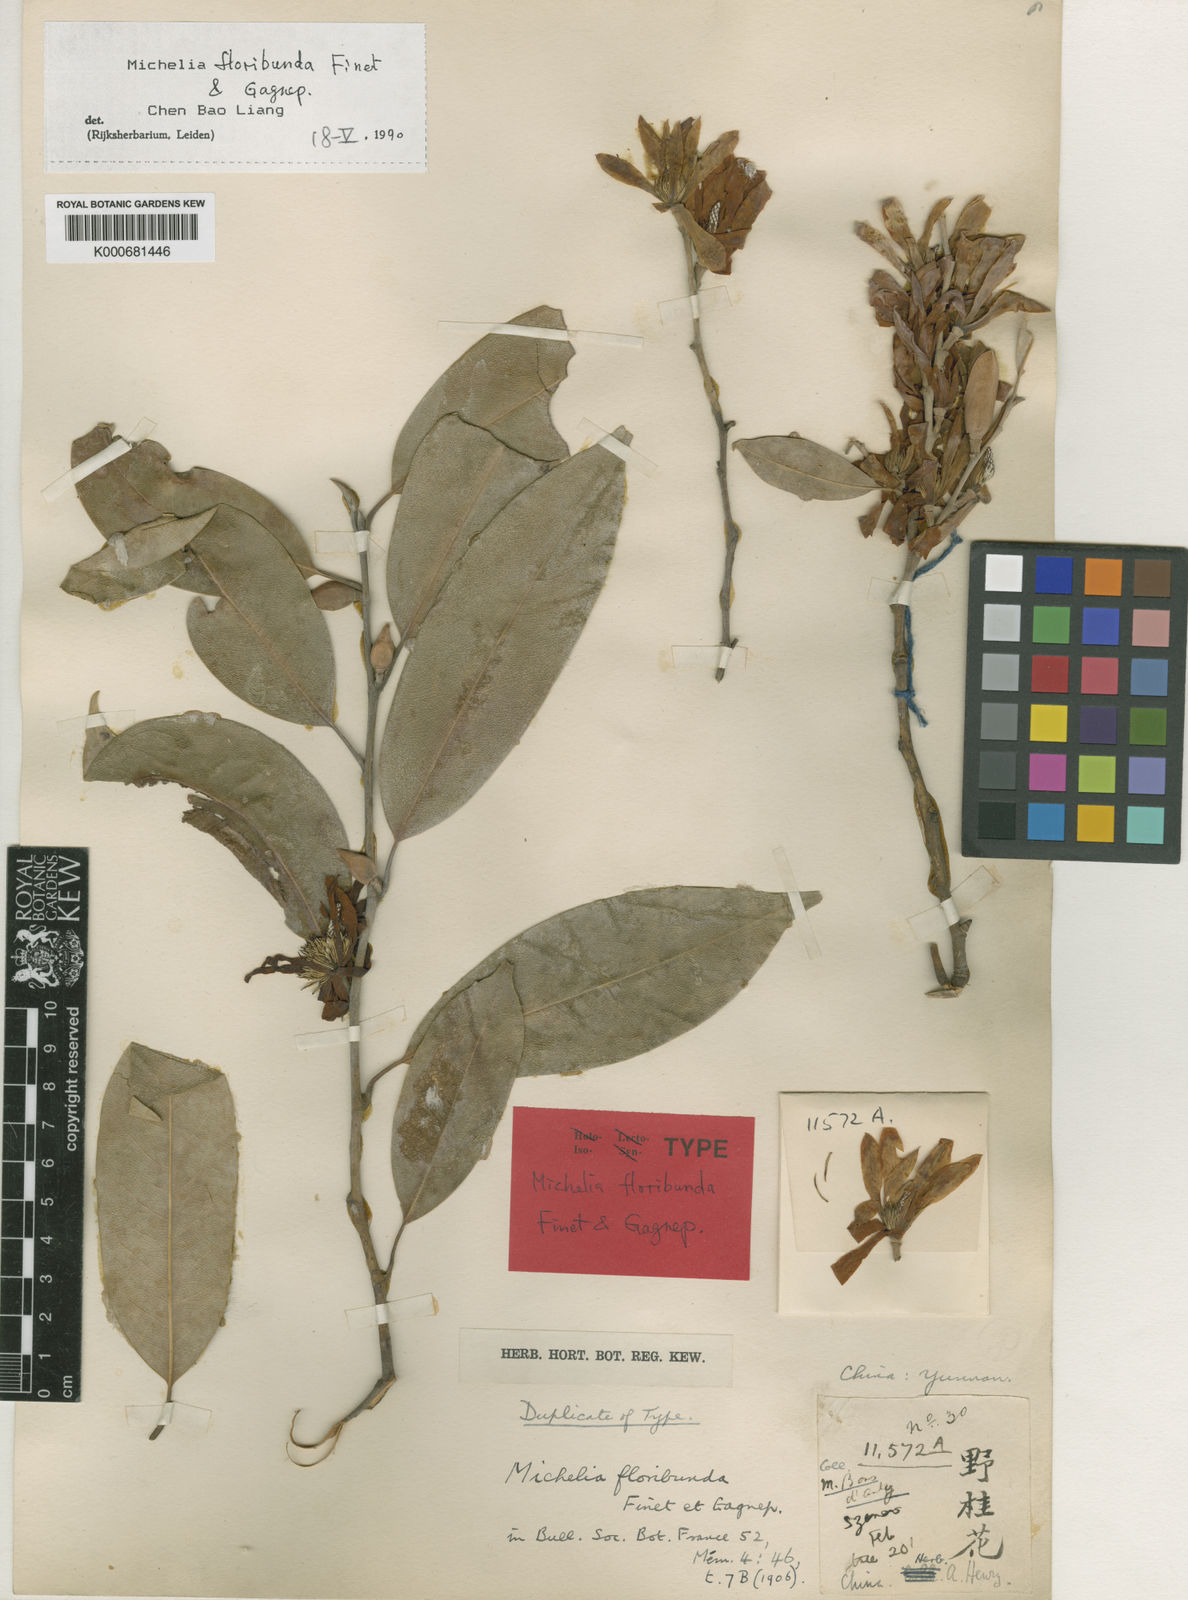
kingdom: Plantae
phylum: Tracheophyta
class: Magnoliopsida
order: Magnoliales
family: Magnoliaceae
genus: Magnolia
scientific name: Magnolia floribunda
